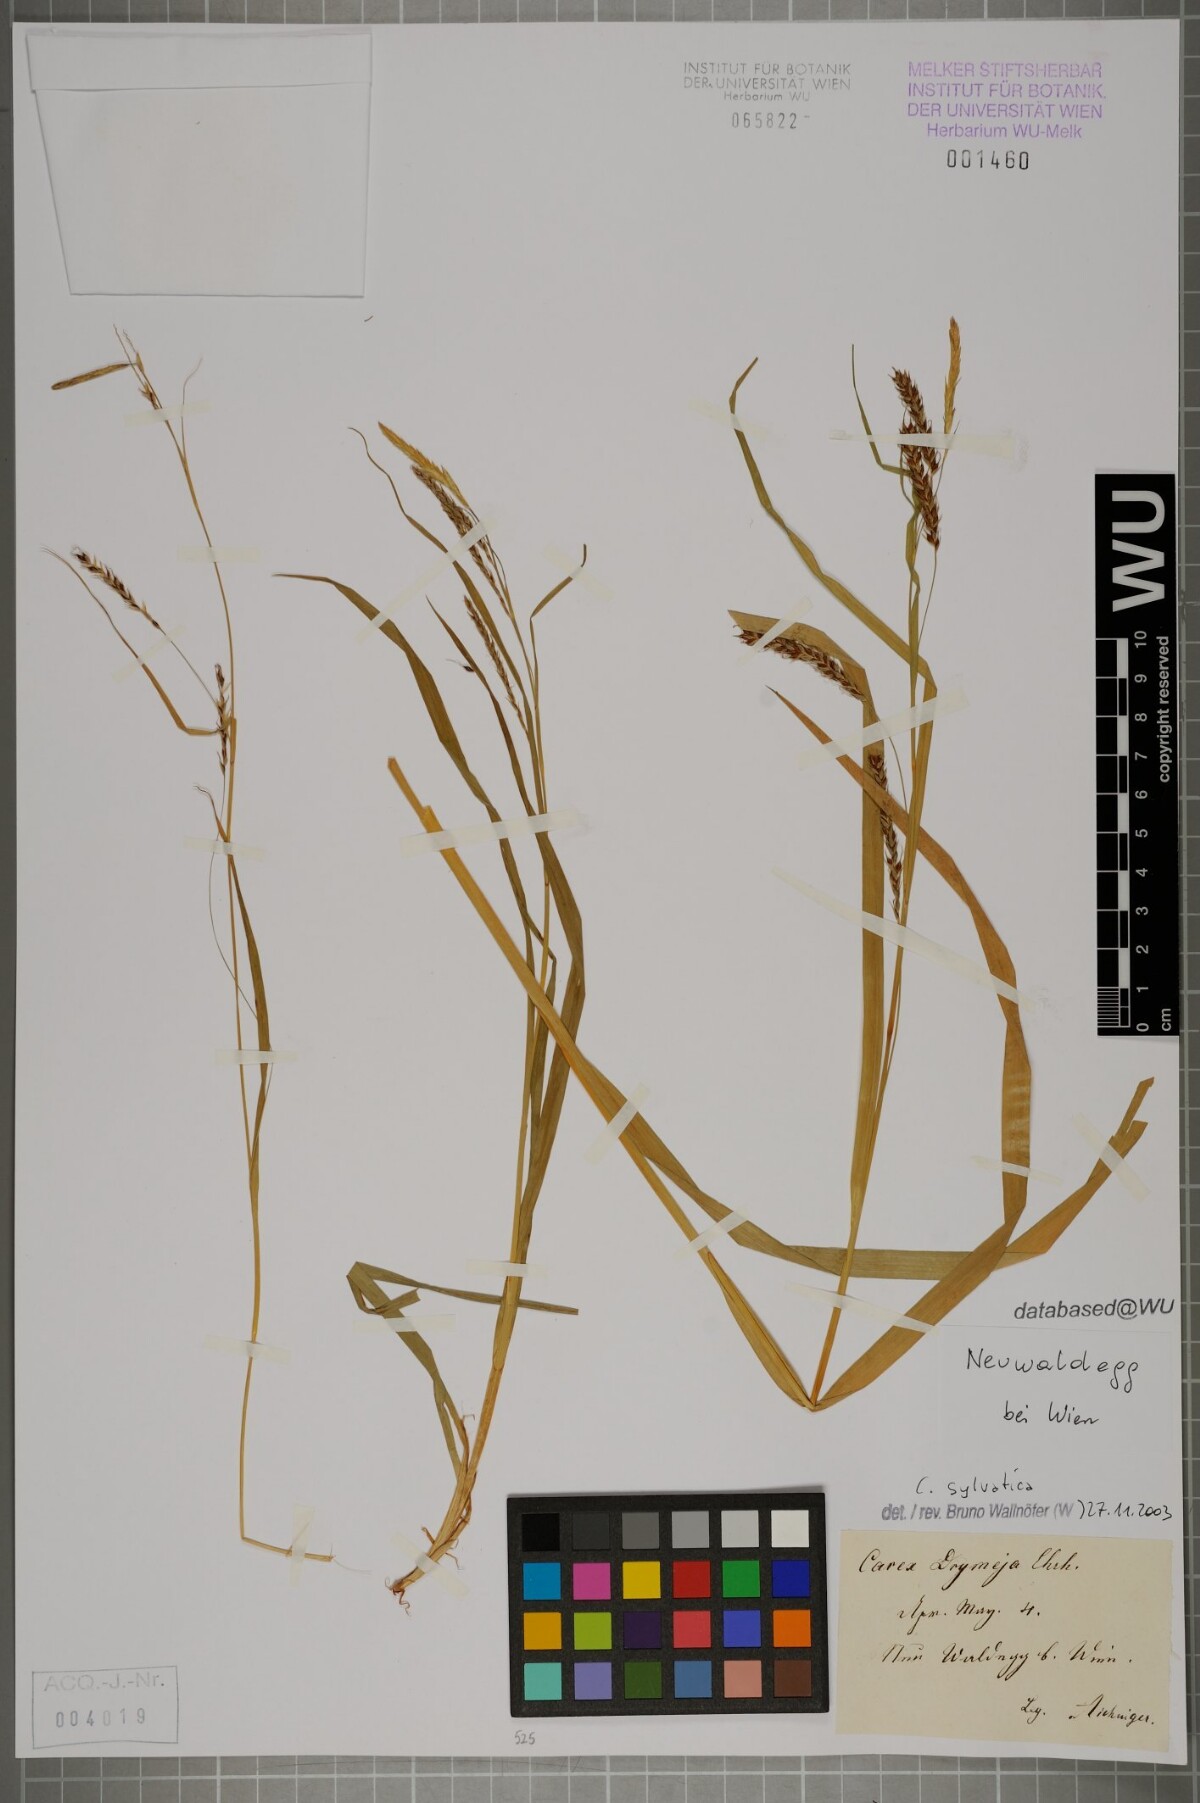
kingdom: Plantae
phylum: Tracheophyta
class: Liliopsida
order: Poales
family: Cyperaceae
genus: Carex
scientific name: Carex sylvatica
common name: Wood-sedge
